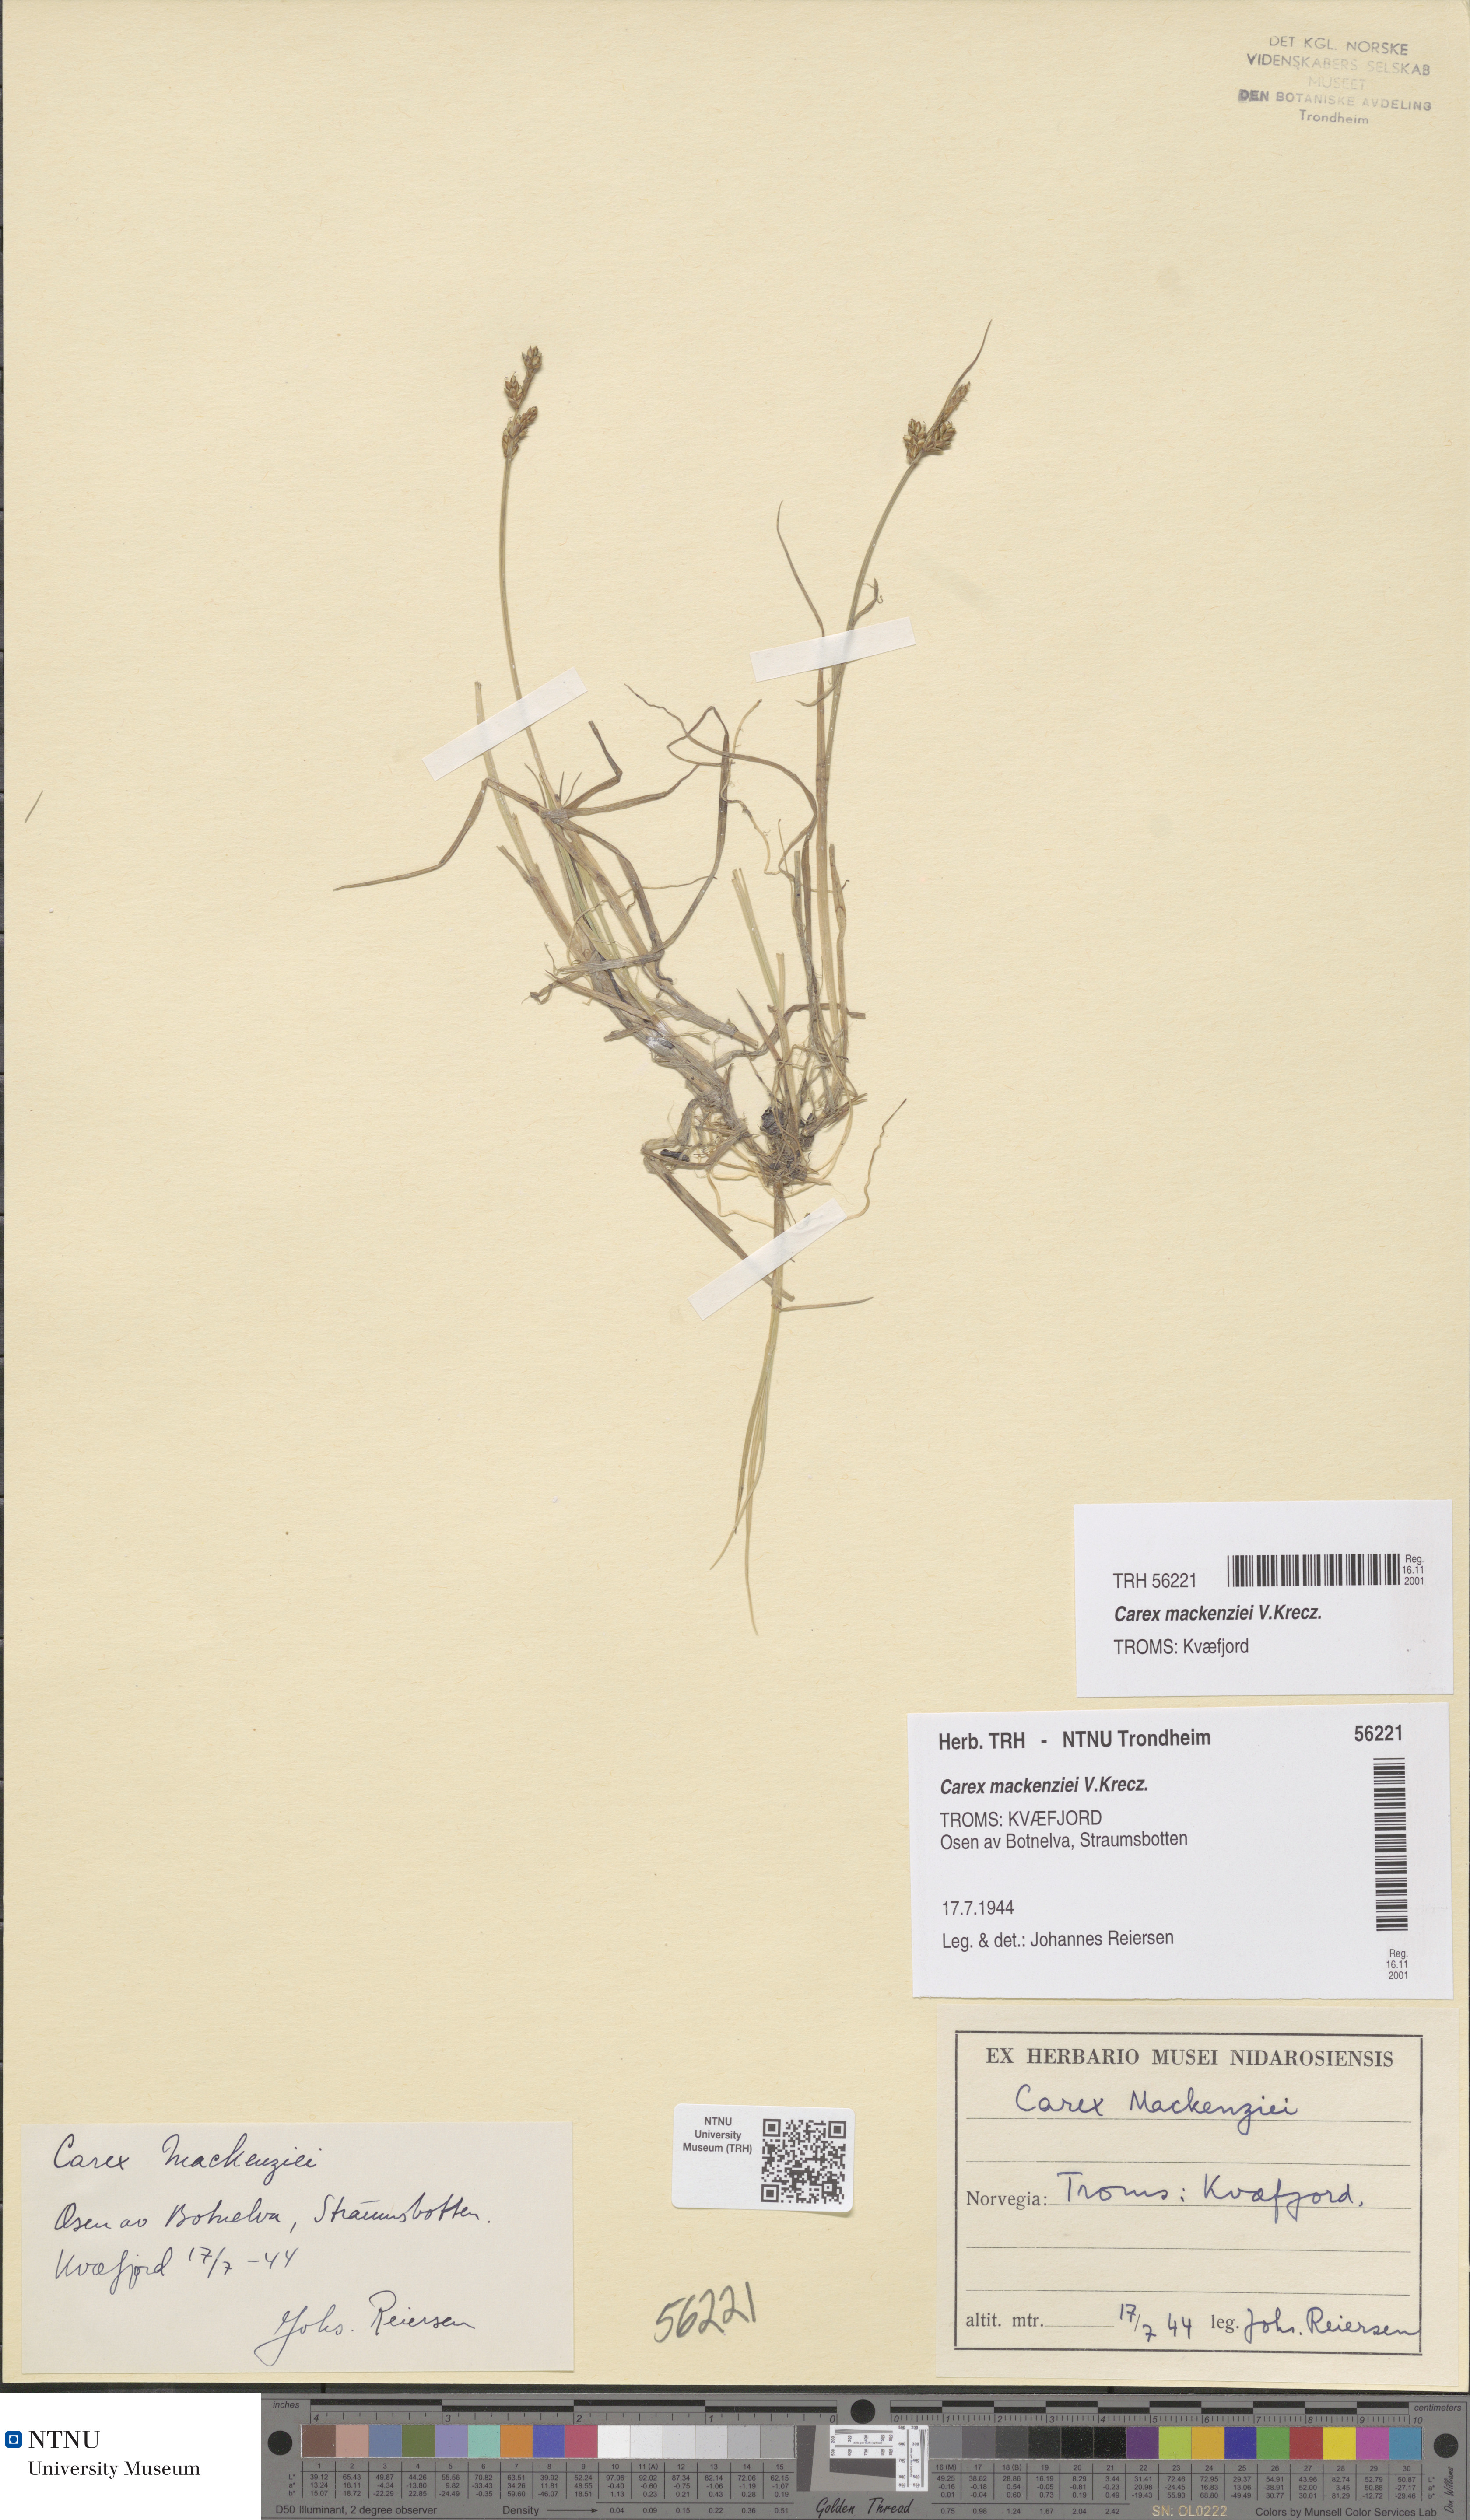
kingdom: Plantae
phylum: Tracheophyta
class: Liliopsida
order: Poales
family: Cyperaceae
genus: Carex
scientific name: Carex mackenziei
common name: Mackenzie's sedge
